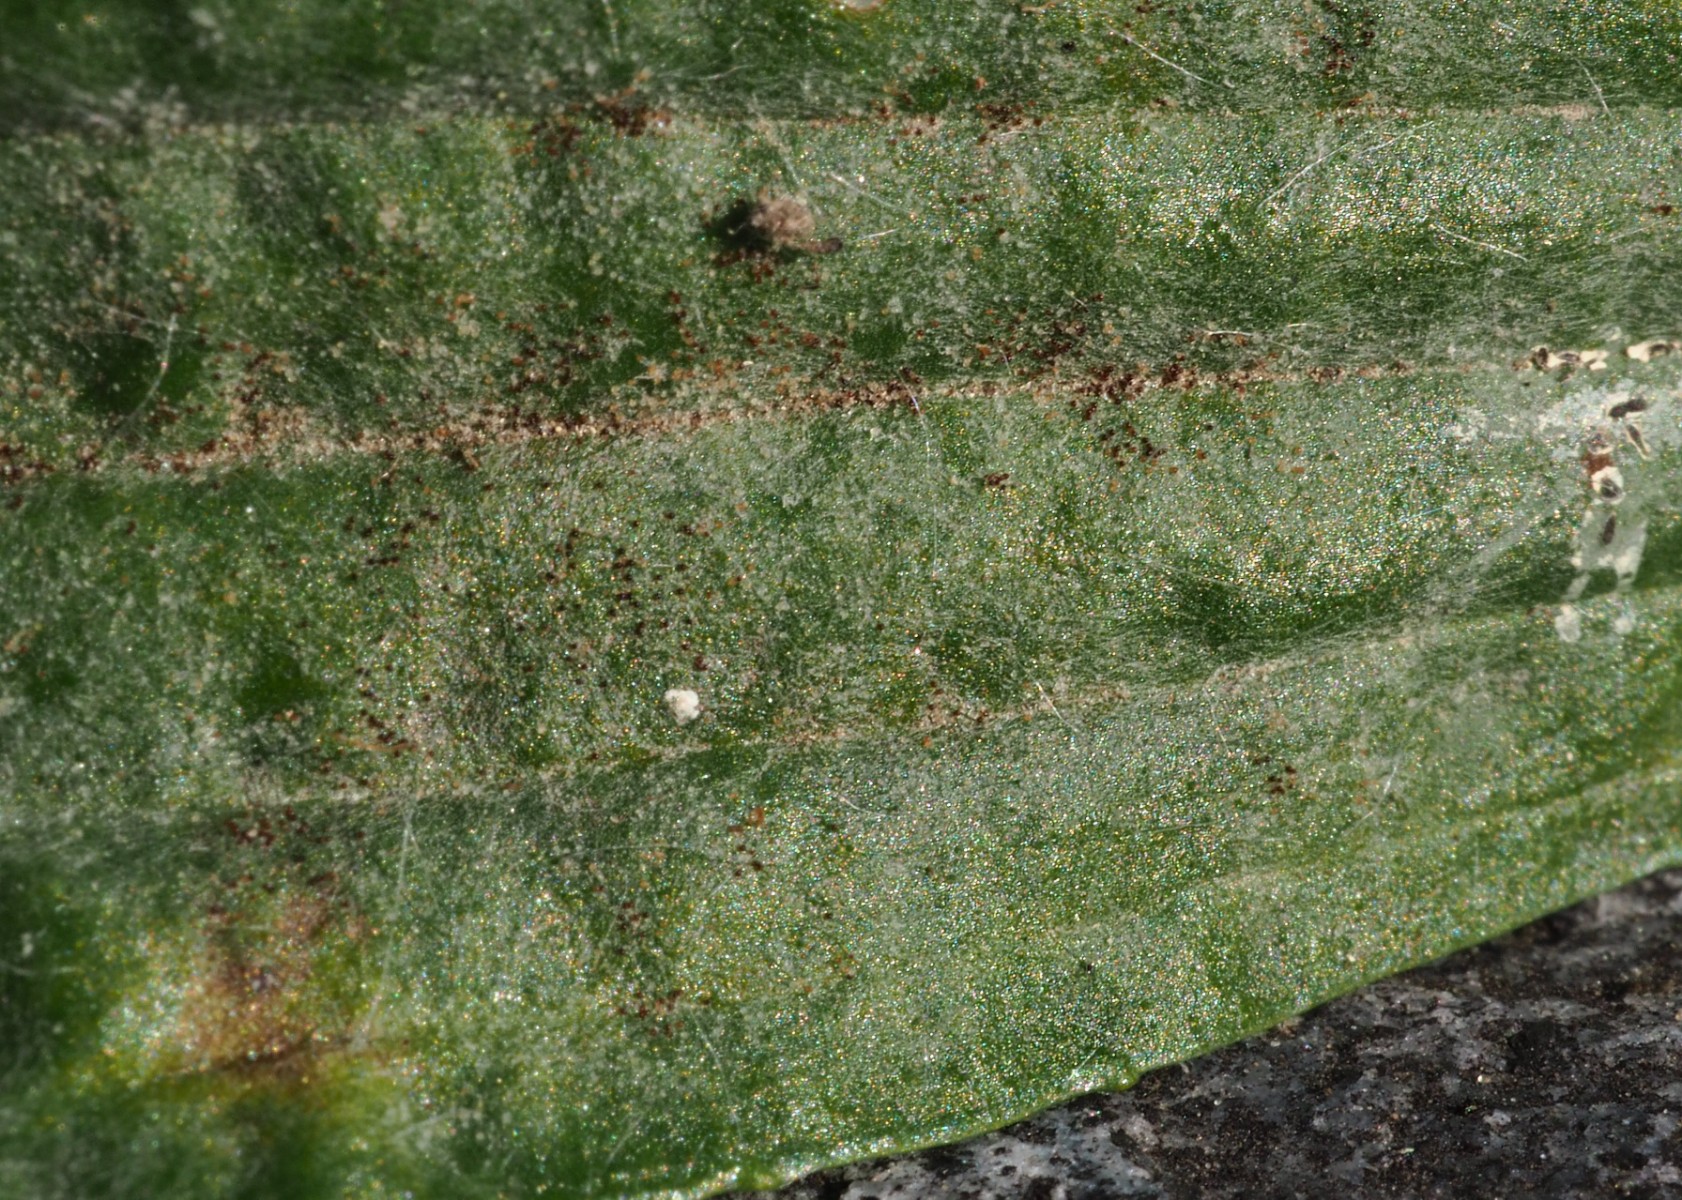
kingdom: Fungi
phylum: Ascomycota
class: Leotiomycetes
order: Helotiales
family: Erysiphaceae
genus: Podosphaera
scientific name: Podosphaera plantaginis
